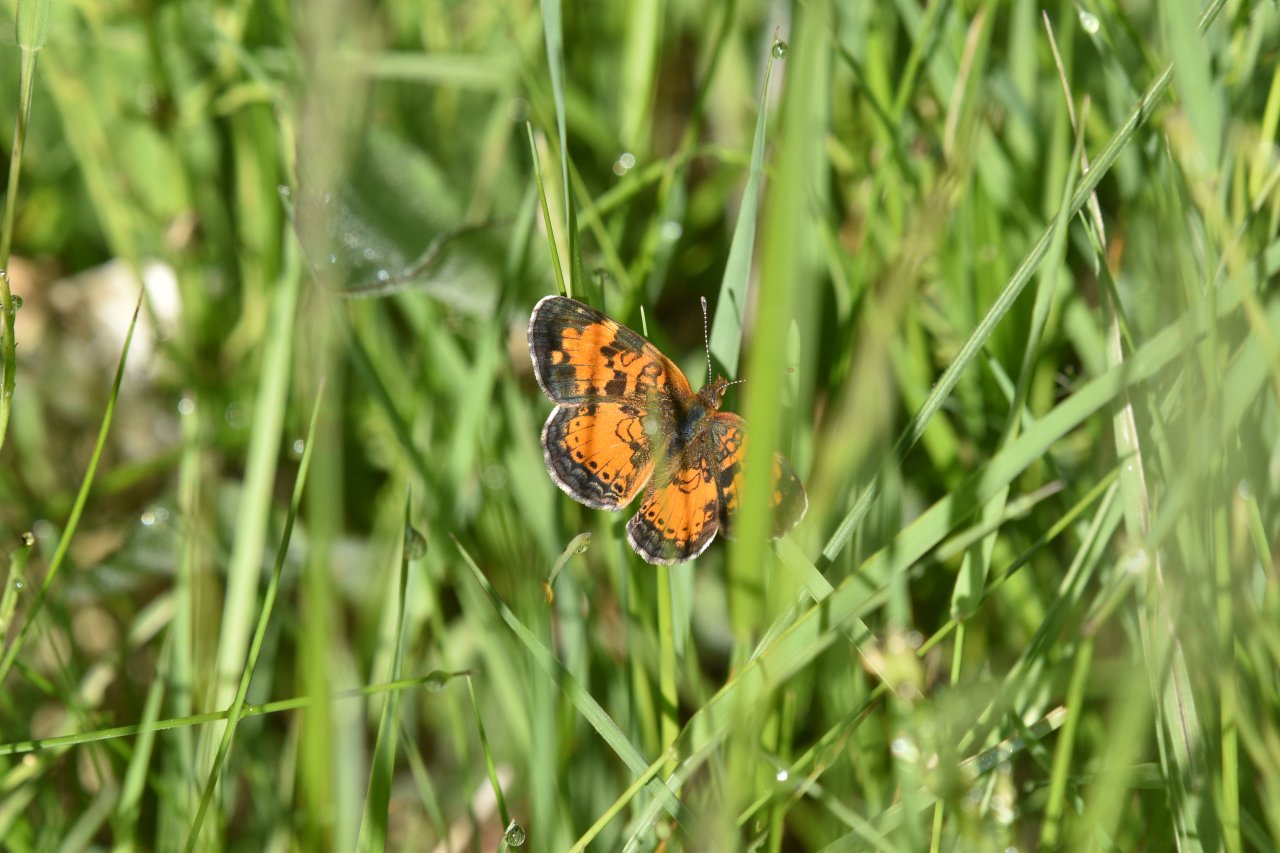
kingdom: Animalia
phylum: Arthropoda
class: Insecta
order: Lepidoptera
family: Nymphalidae
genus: Phyciodes
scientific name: Phyciodes tharos
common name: Northern Crescent
